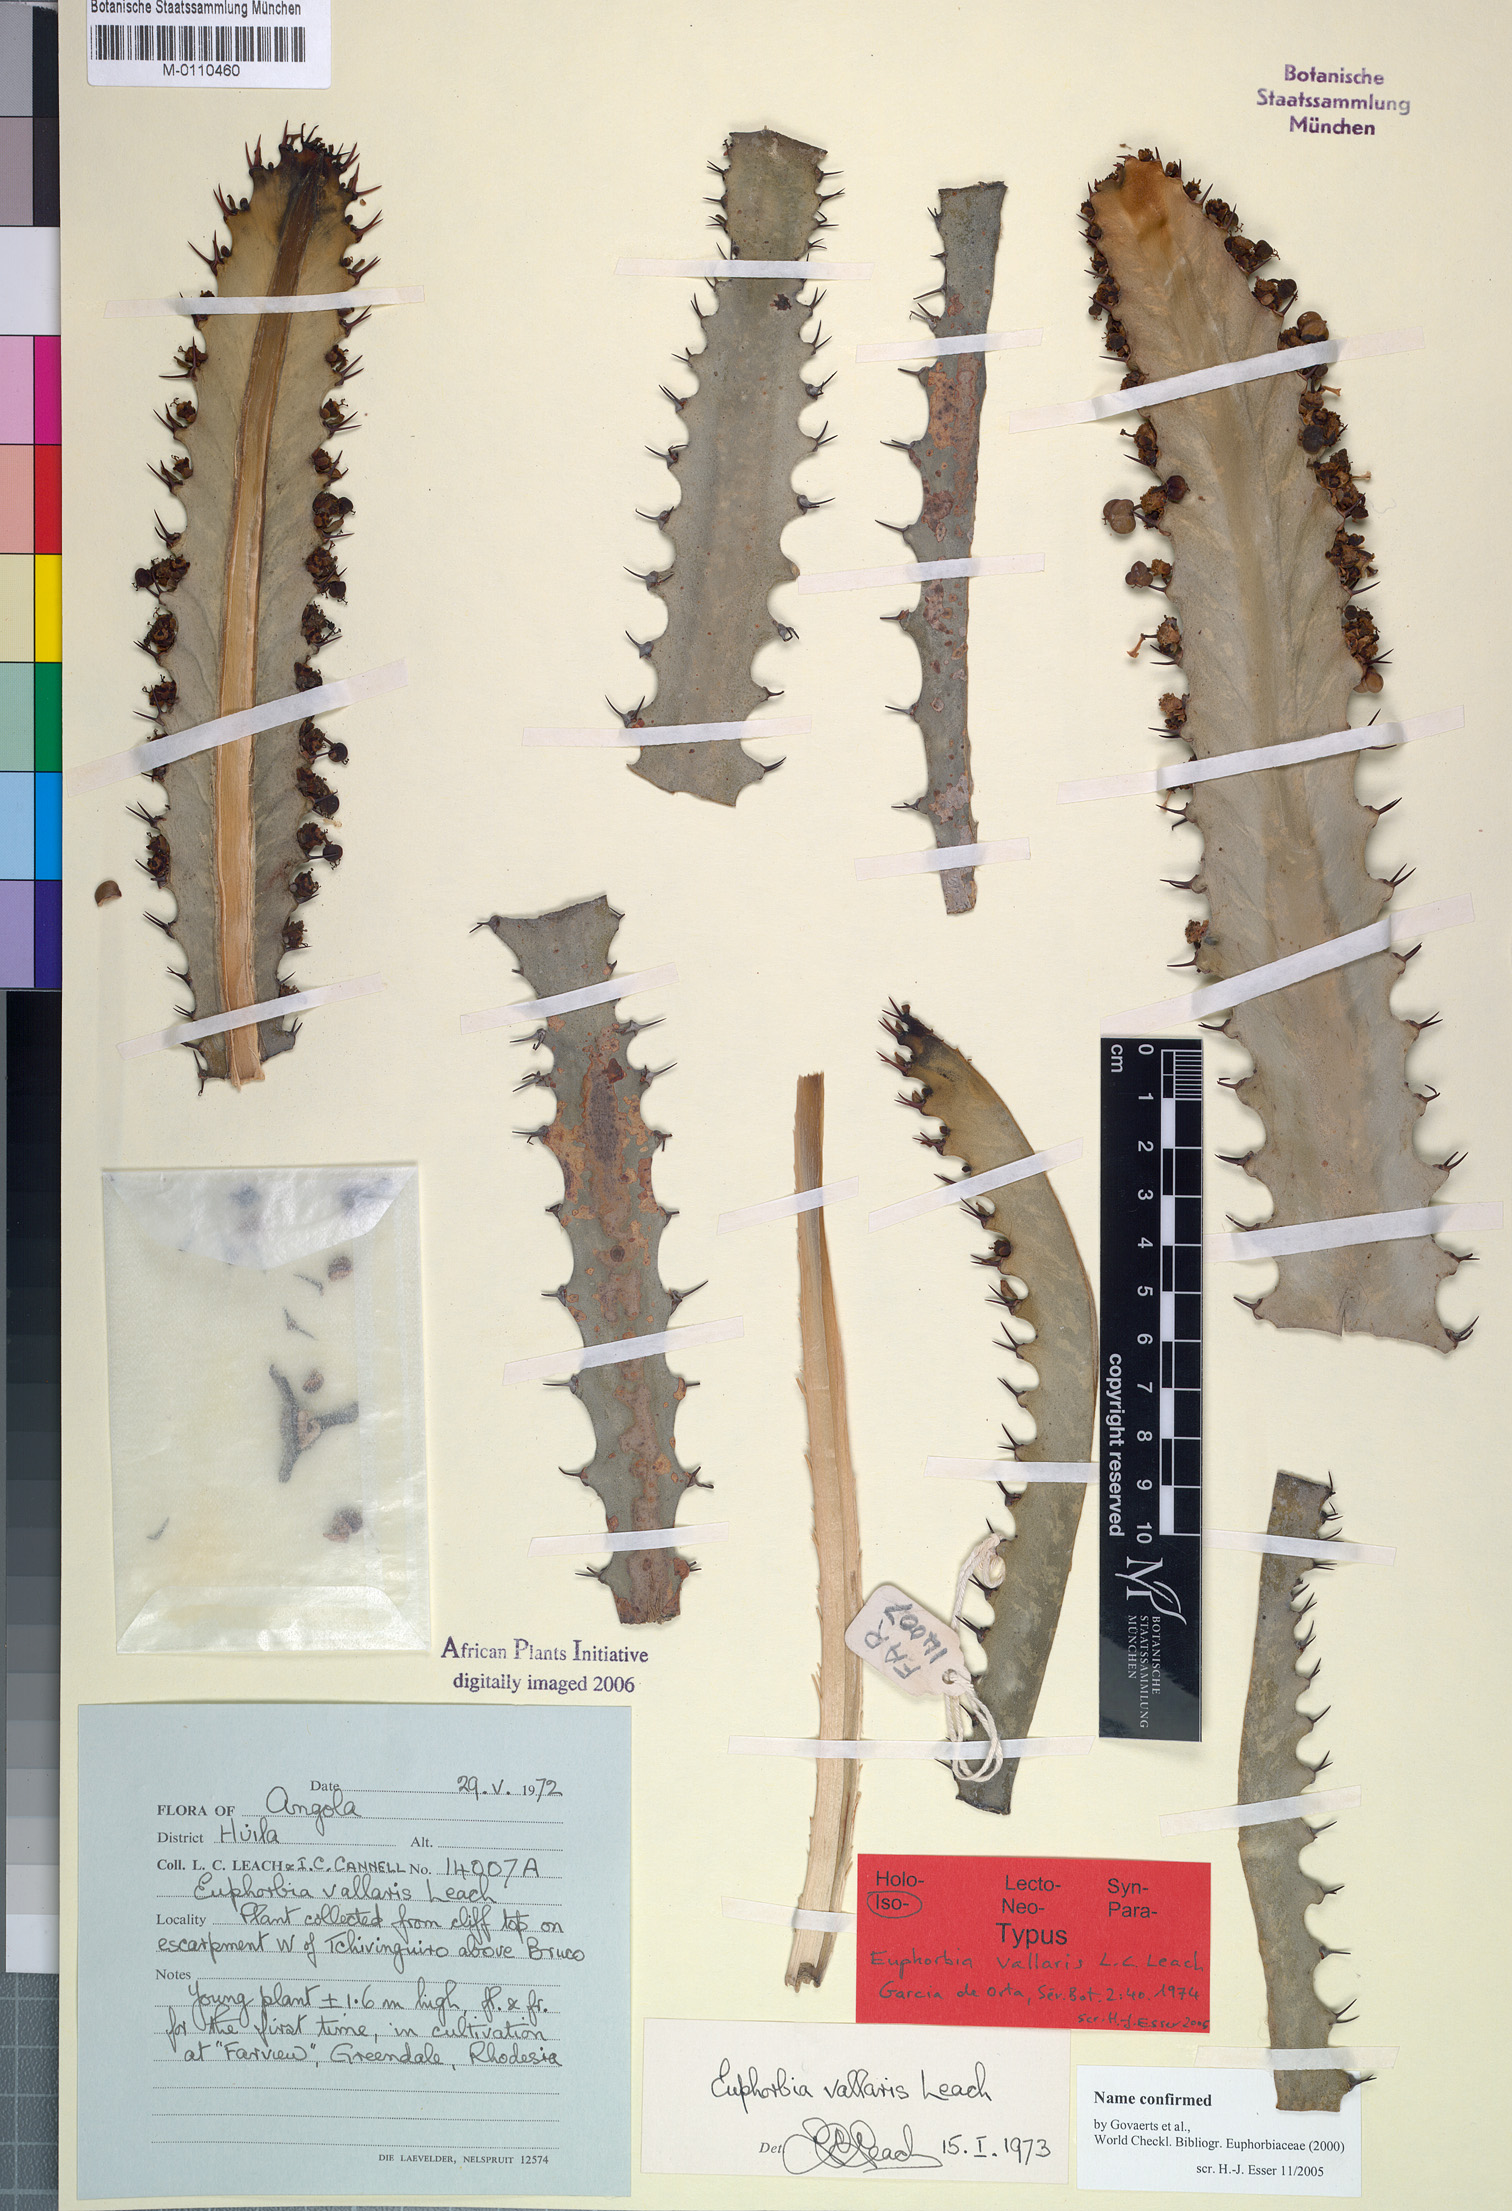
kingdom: Plantae
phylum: Tracheophyta
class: Magnoliopsida
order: Malpighiales
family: Euphorbiaceae
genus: Euphorbia
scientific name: Euphorbia vallaris
